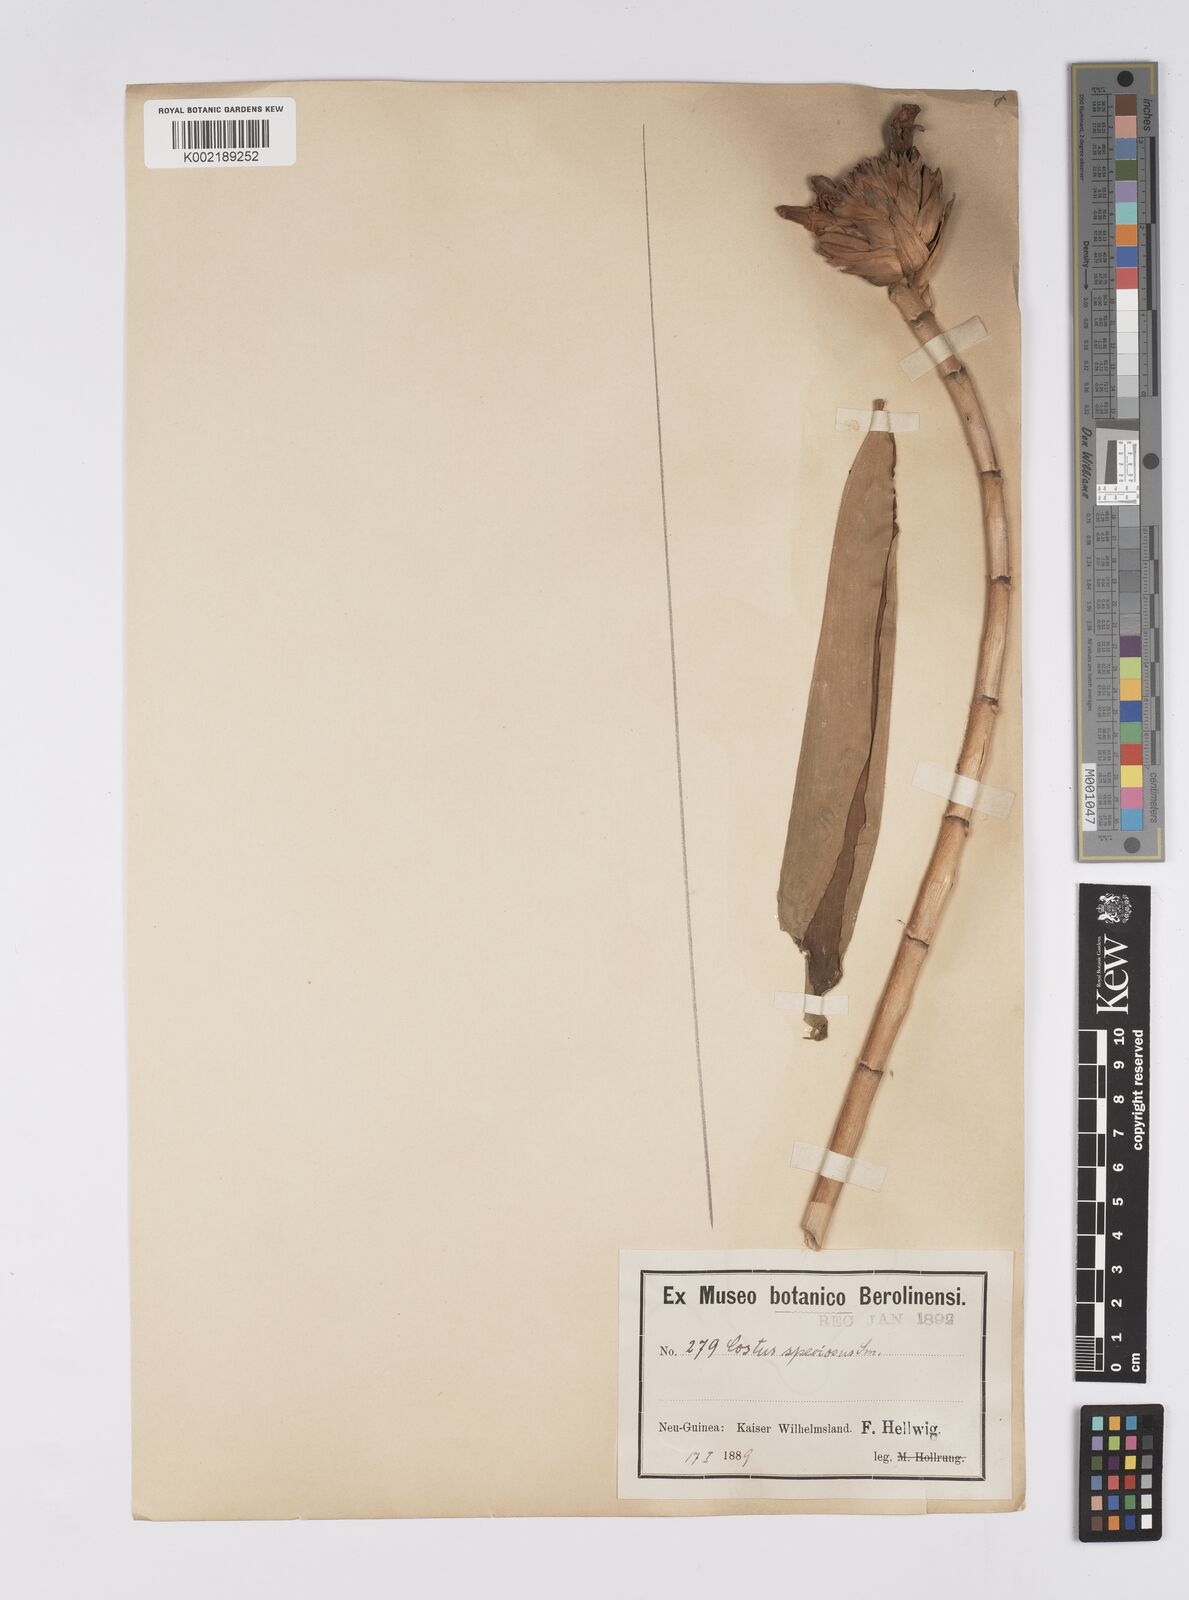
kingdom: Plantae
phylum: Tracheophyta
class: Liliopsida
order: Zingiberales
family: Costaceae
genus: Hellenia
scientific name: Hellenia speciosa
